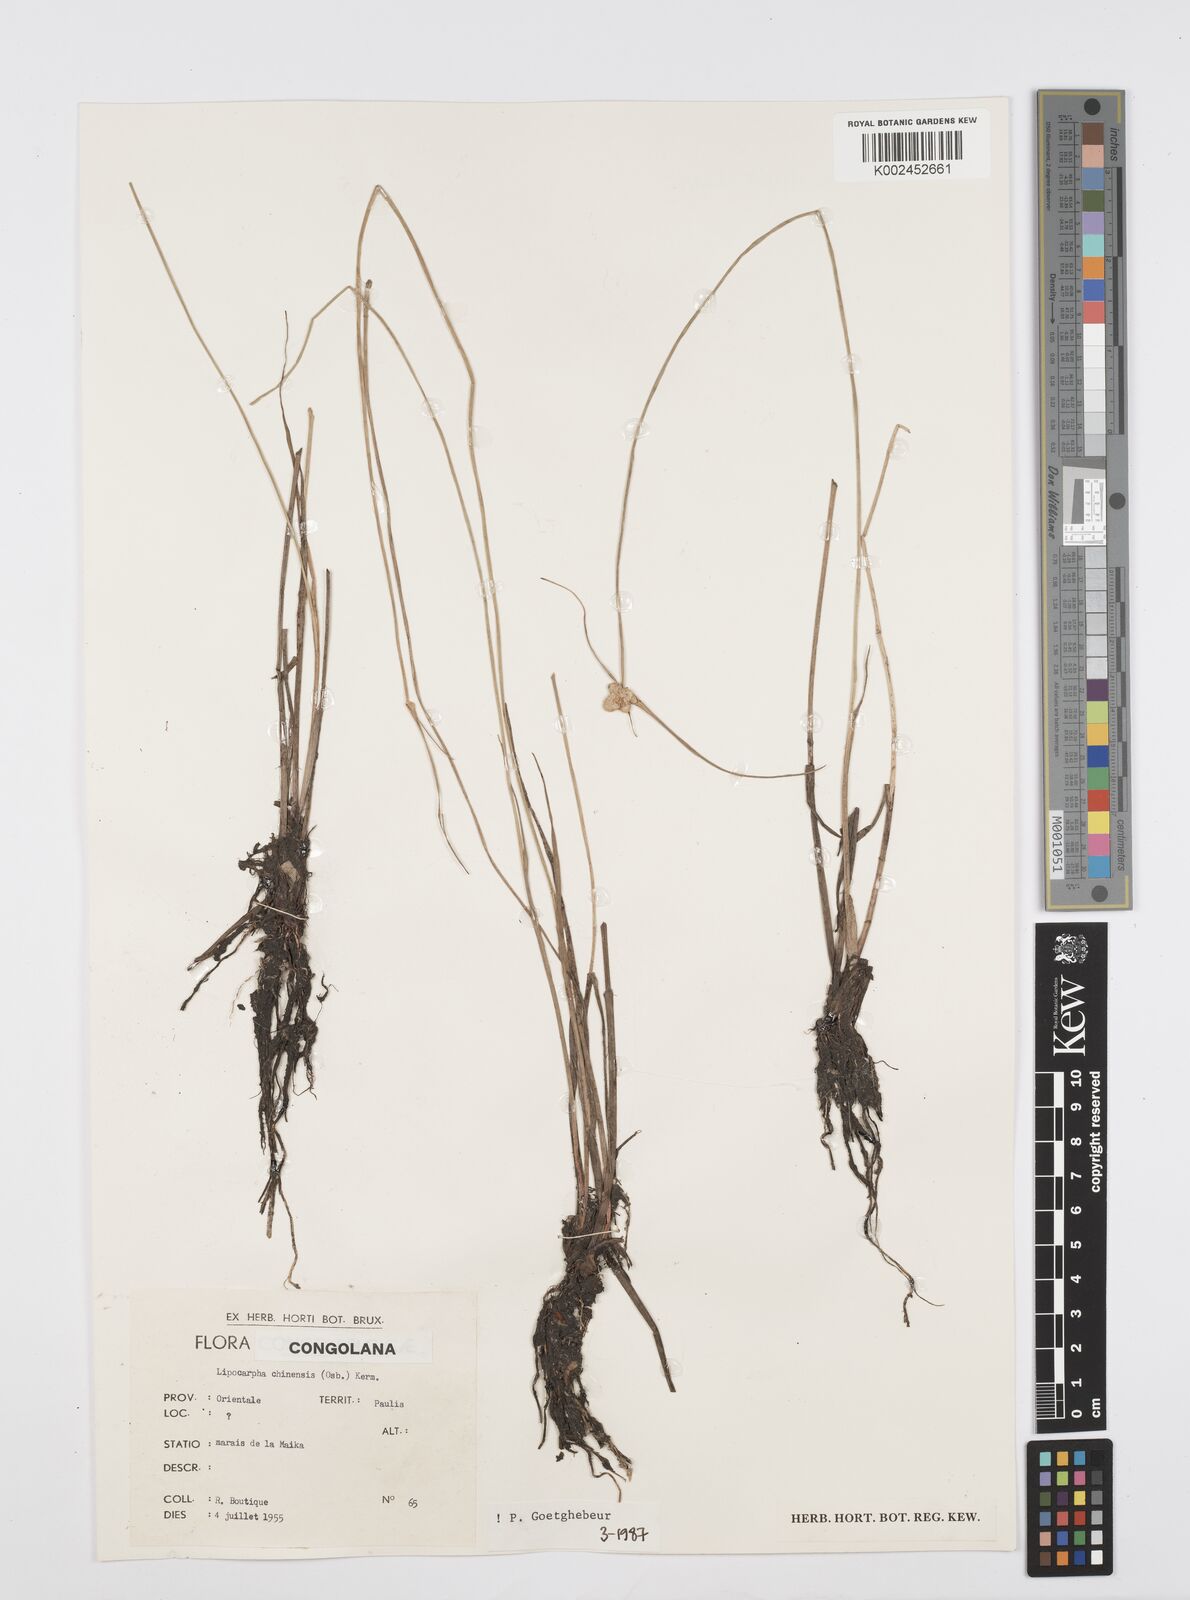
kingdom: Plantae
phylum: Tracheophyta
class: Liliopsida
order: Poales
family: Cyperaceae
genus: Cyperus
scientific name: Cyperus albescens
